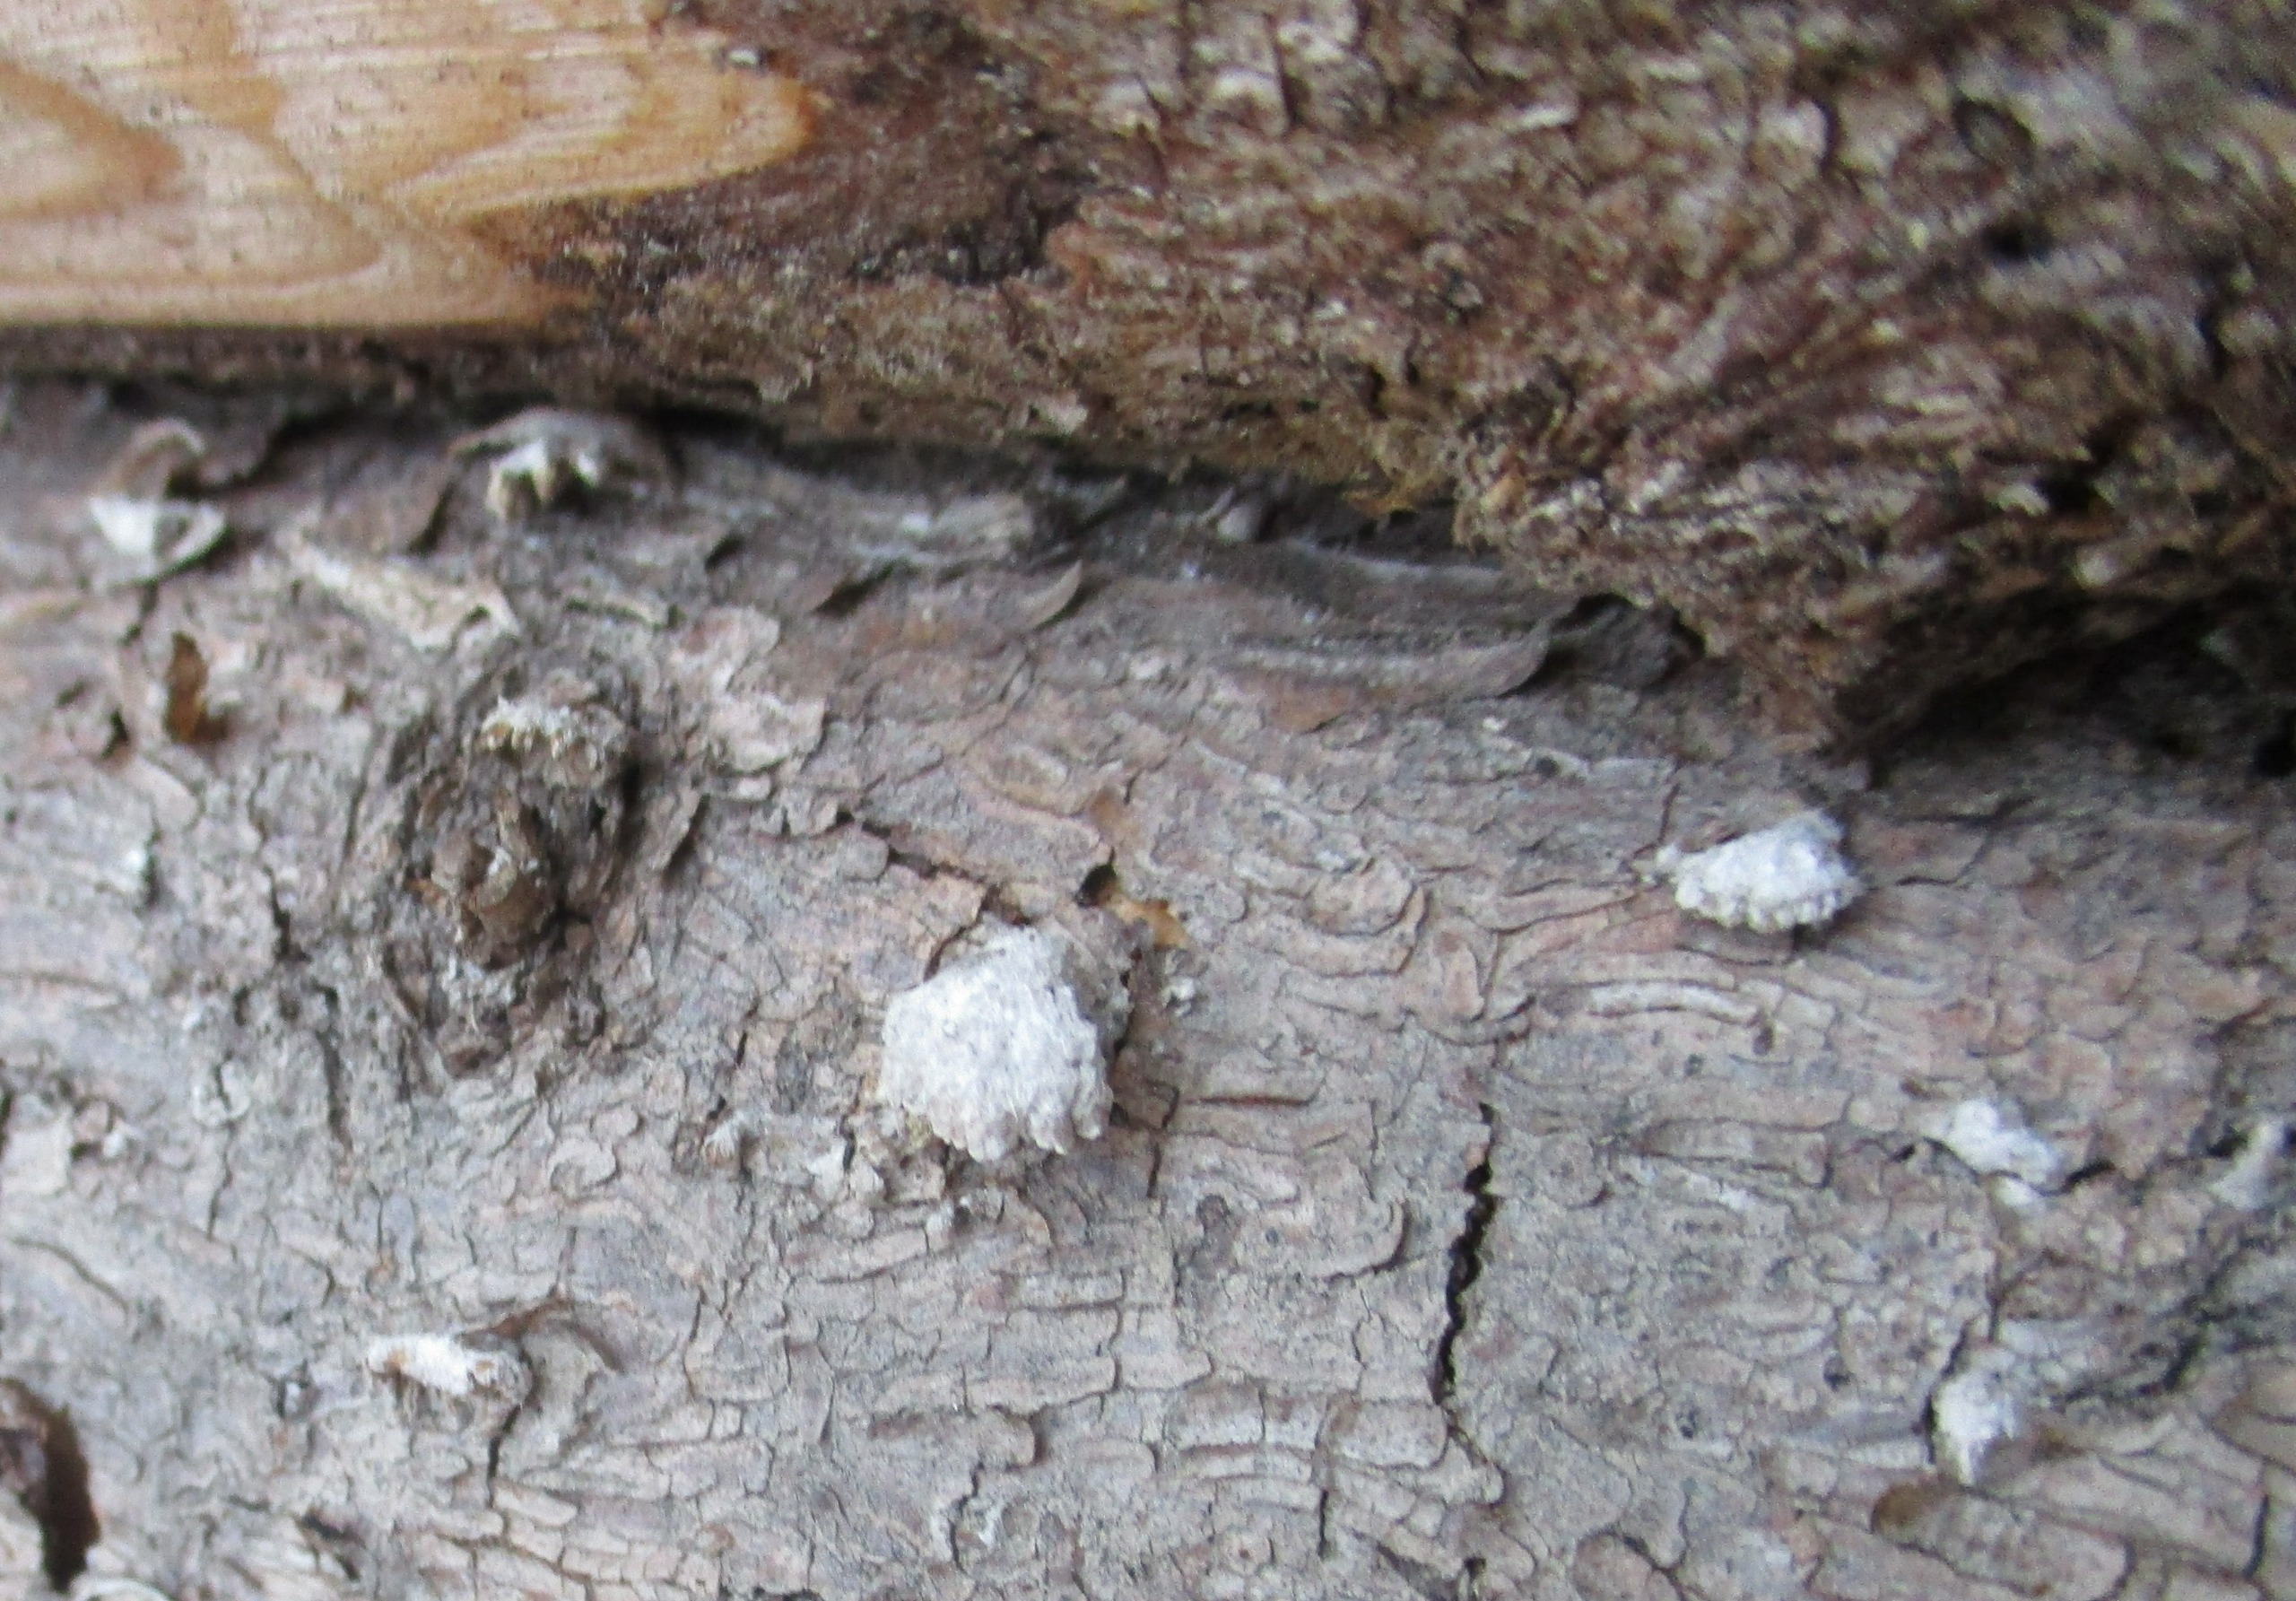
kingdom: Fungi
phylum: Basidiomycota
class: Agaricomycetes
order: Agaricales
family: Schizophyllaceae
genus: Schizophyllum
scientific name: Schizophyllum commune
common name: Kløvblad
